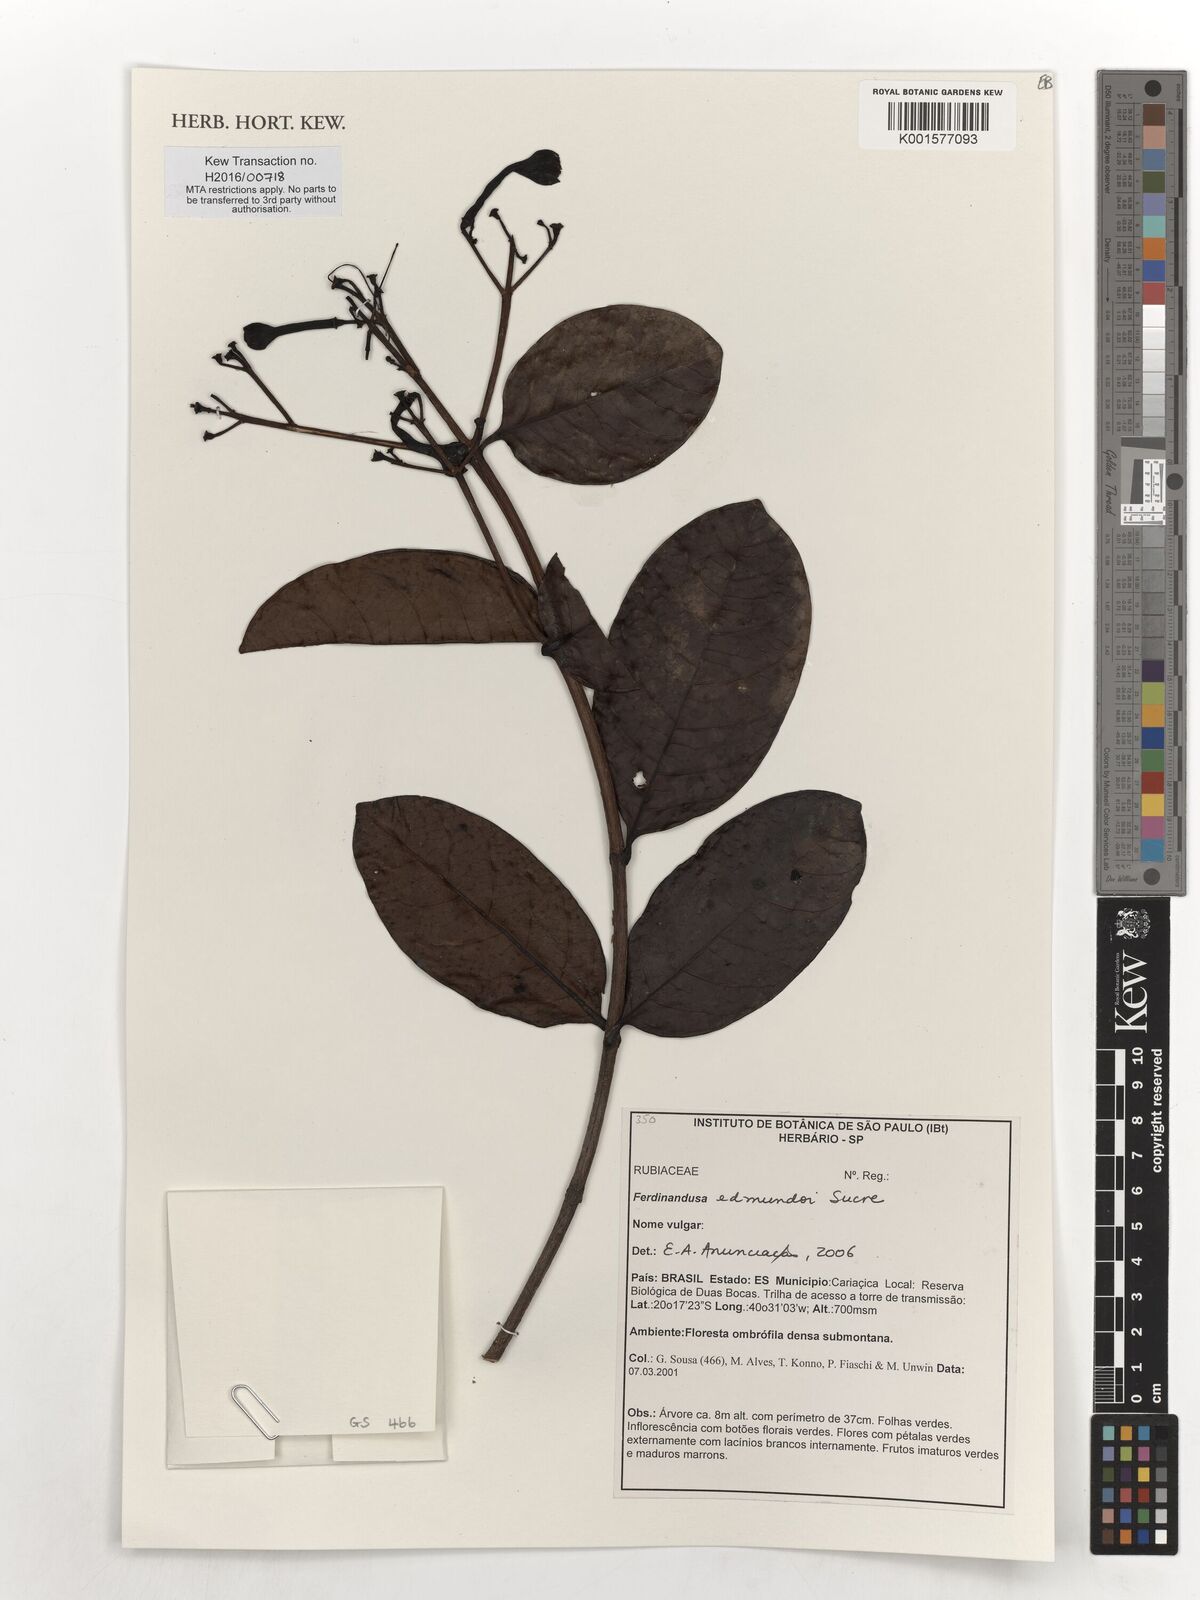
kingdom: Plantae
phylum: Tracheophyta
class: Magnoliopsida
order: Gentianales
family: Rubiaceae
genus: Ferdinandusa
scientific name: Ferdinandusa edmundoi
